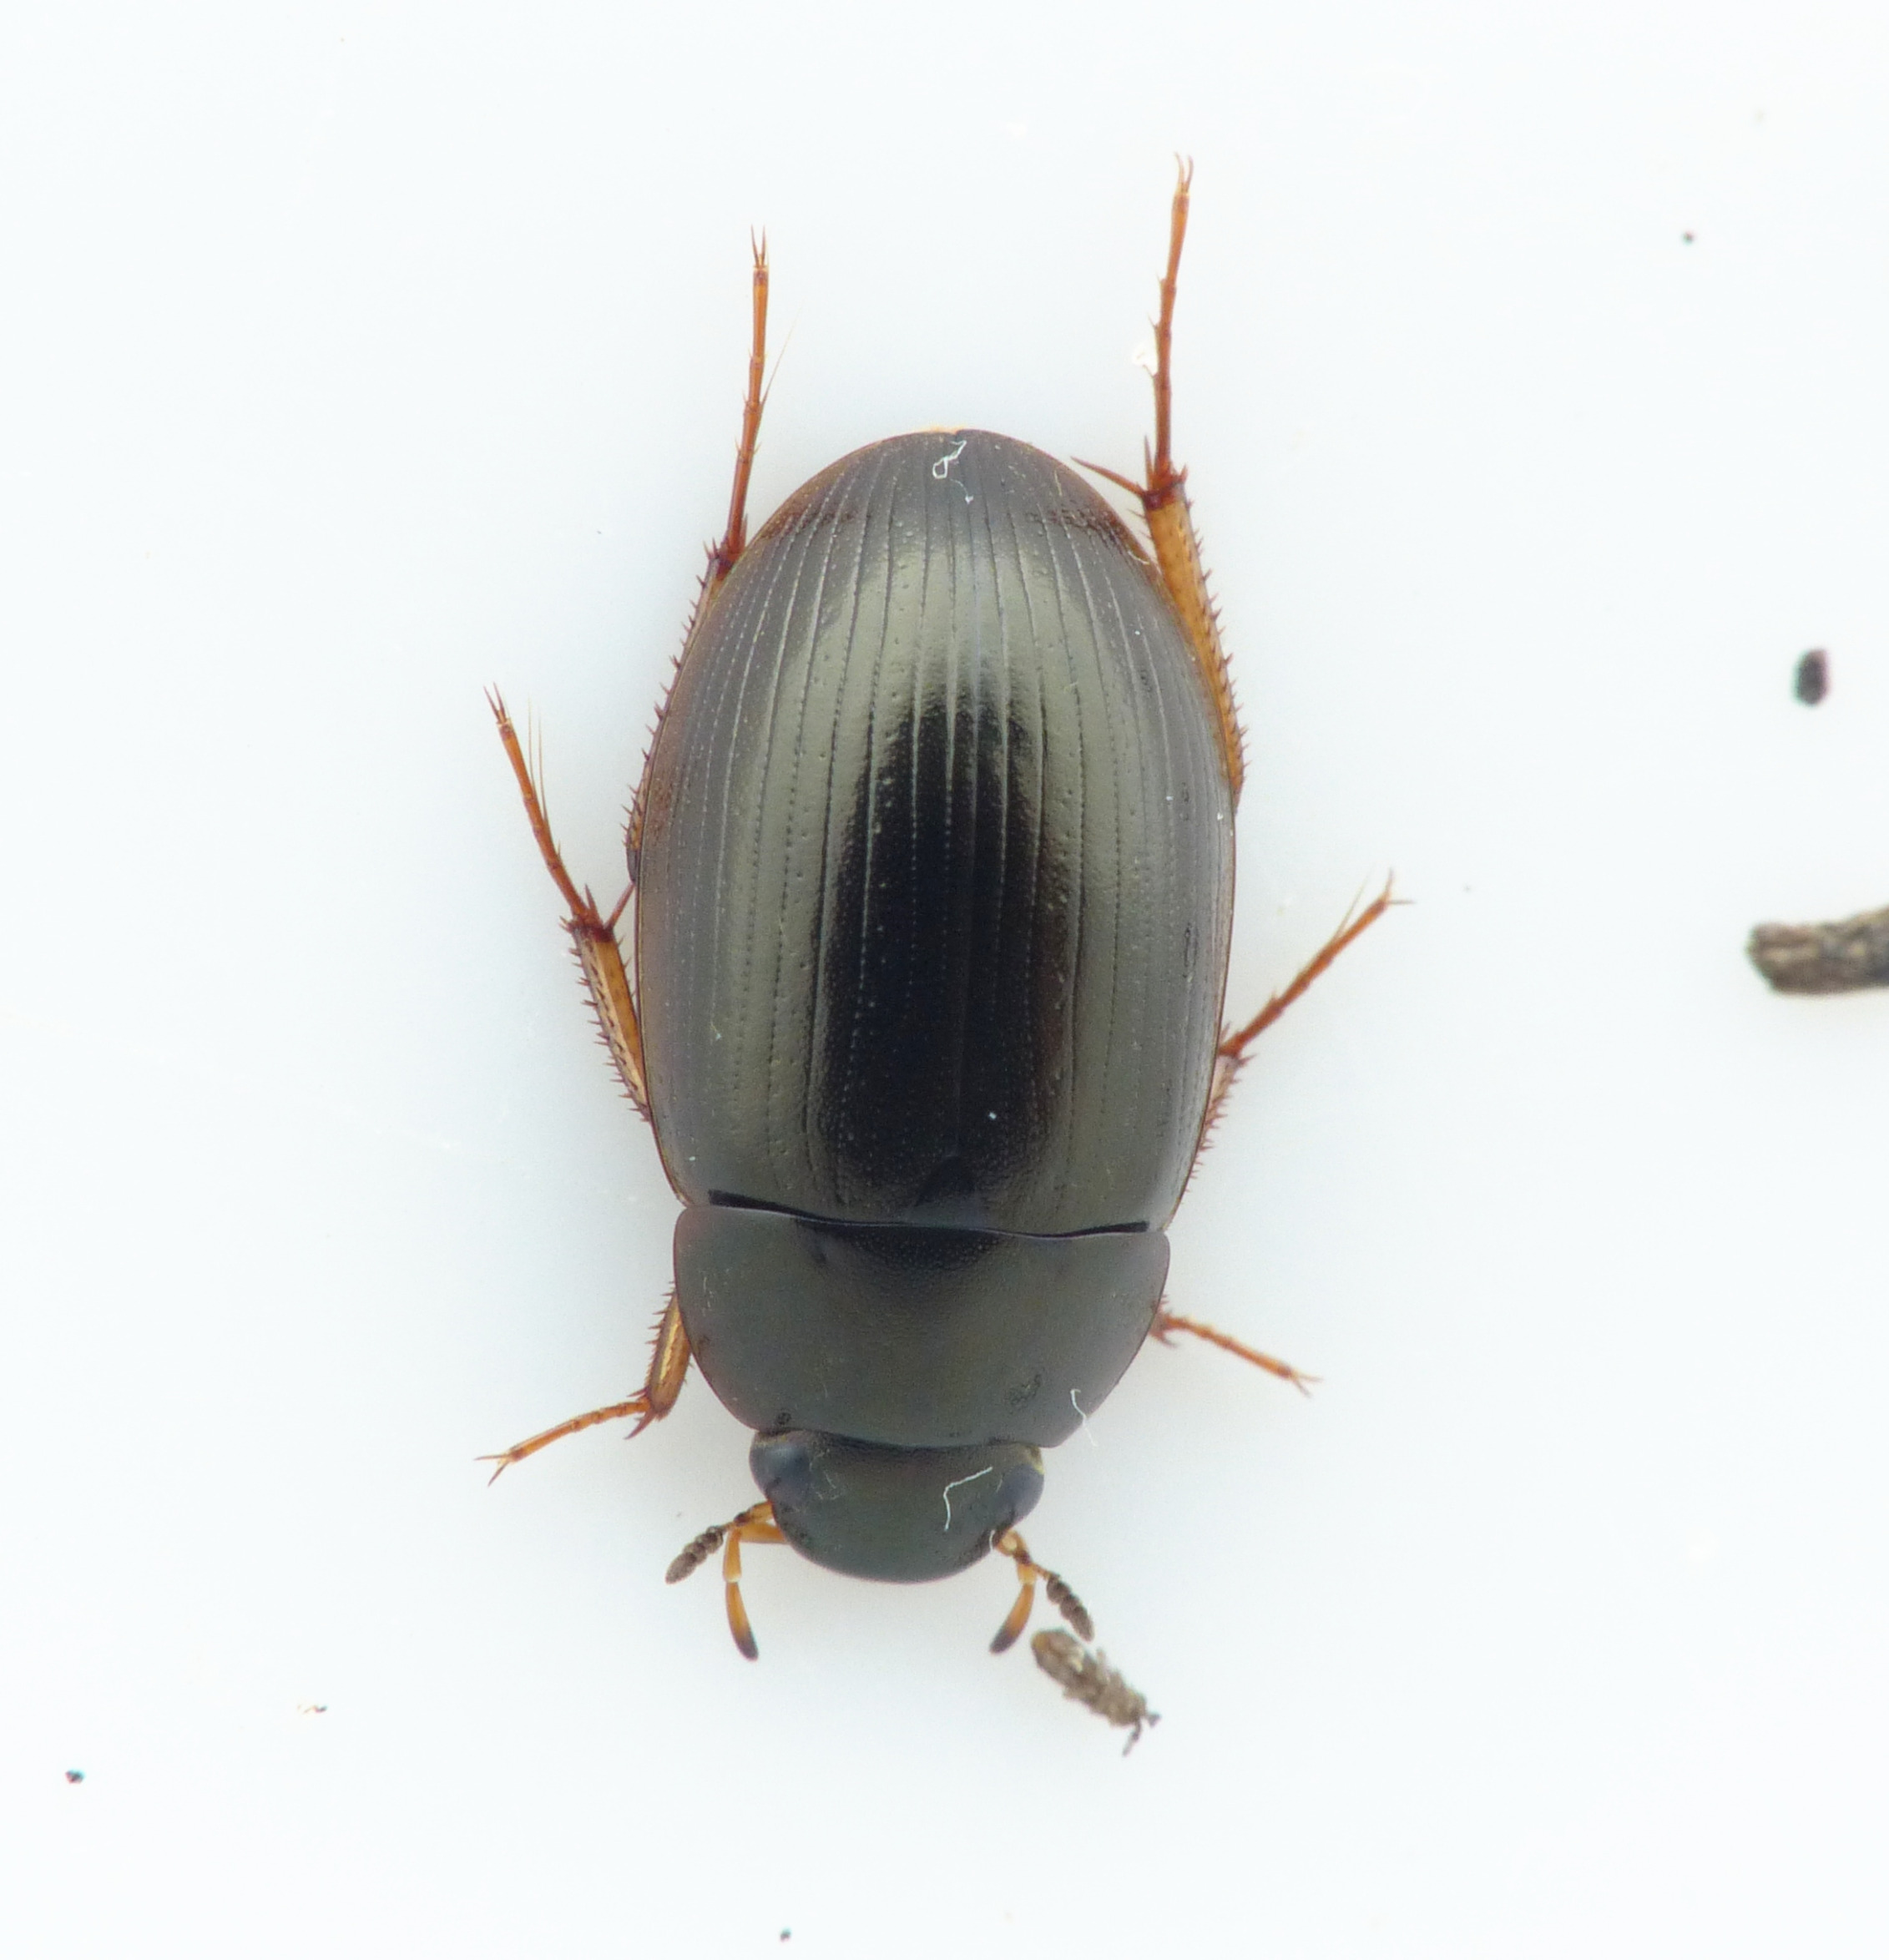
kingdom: Animalia
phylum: Arthropoda
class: Insecta
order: Coleoptera
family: Hydrophilidae
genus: Hydrobius
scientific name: Hydrobius fuscipes
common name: Almindelig vandkær
